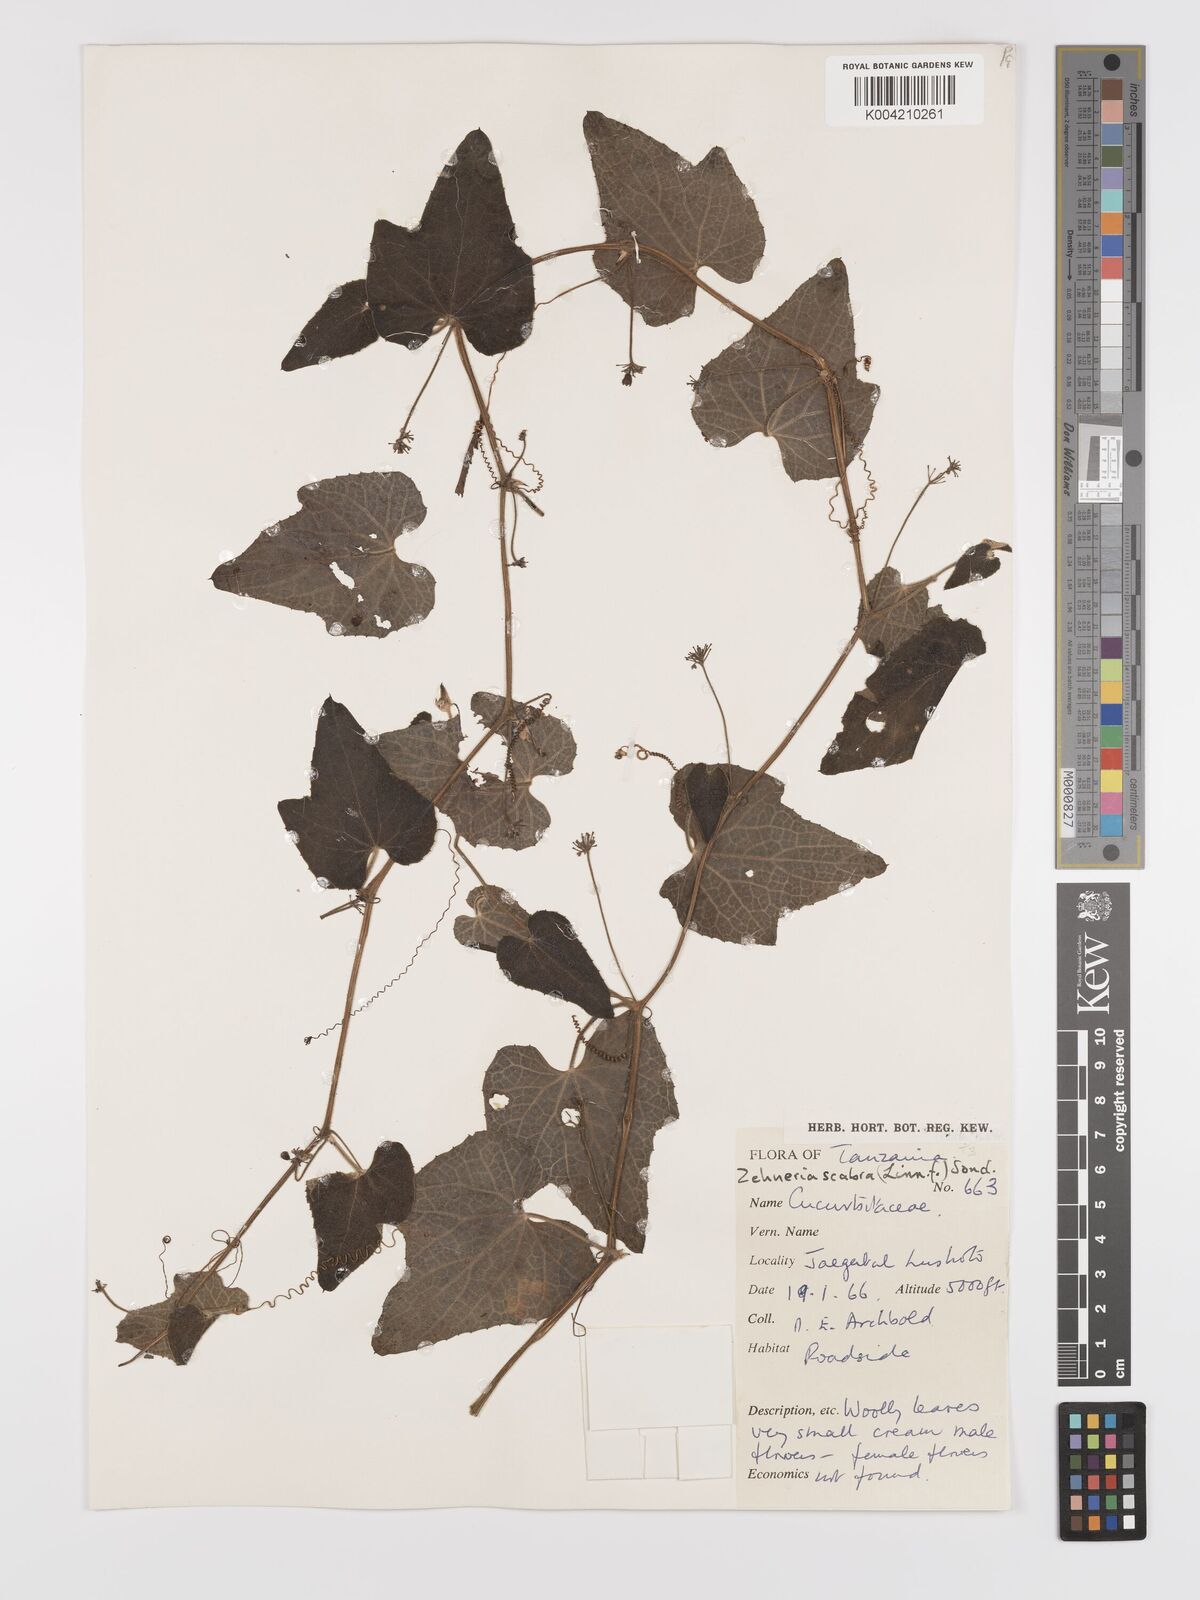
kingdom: Plantae
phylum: Tracheophyta
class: Magnoliopsida
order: Cucurbitales
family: Cucurbitaceae
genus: Zehneria
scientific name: Zehneria scabra
